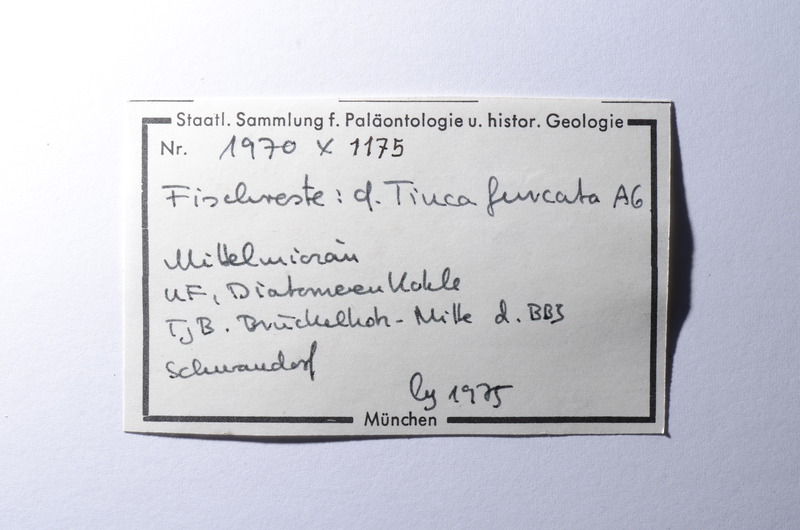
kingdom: Animalia
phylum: Chordata
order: Cypriniformes
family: Cyprinidae
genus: Tinca
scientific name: Tinca fuscata
